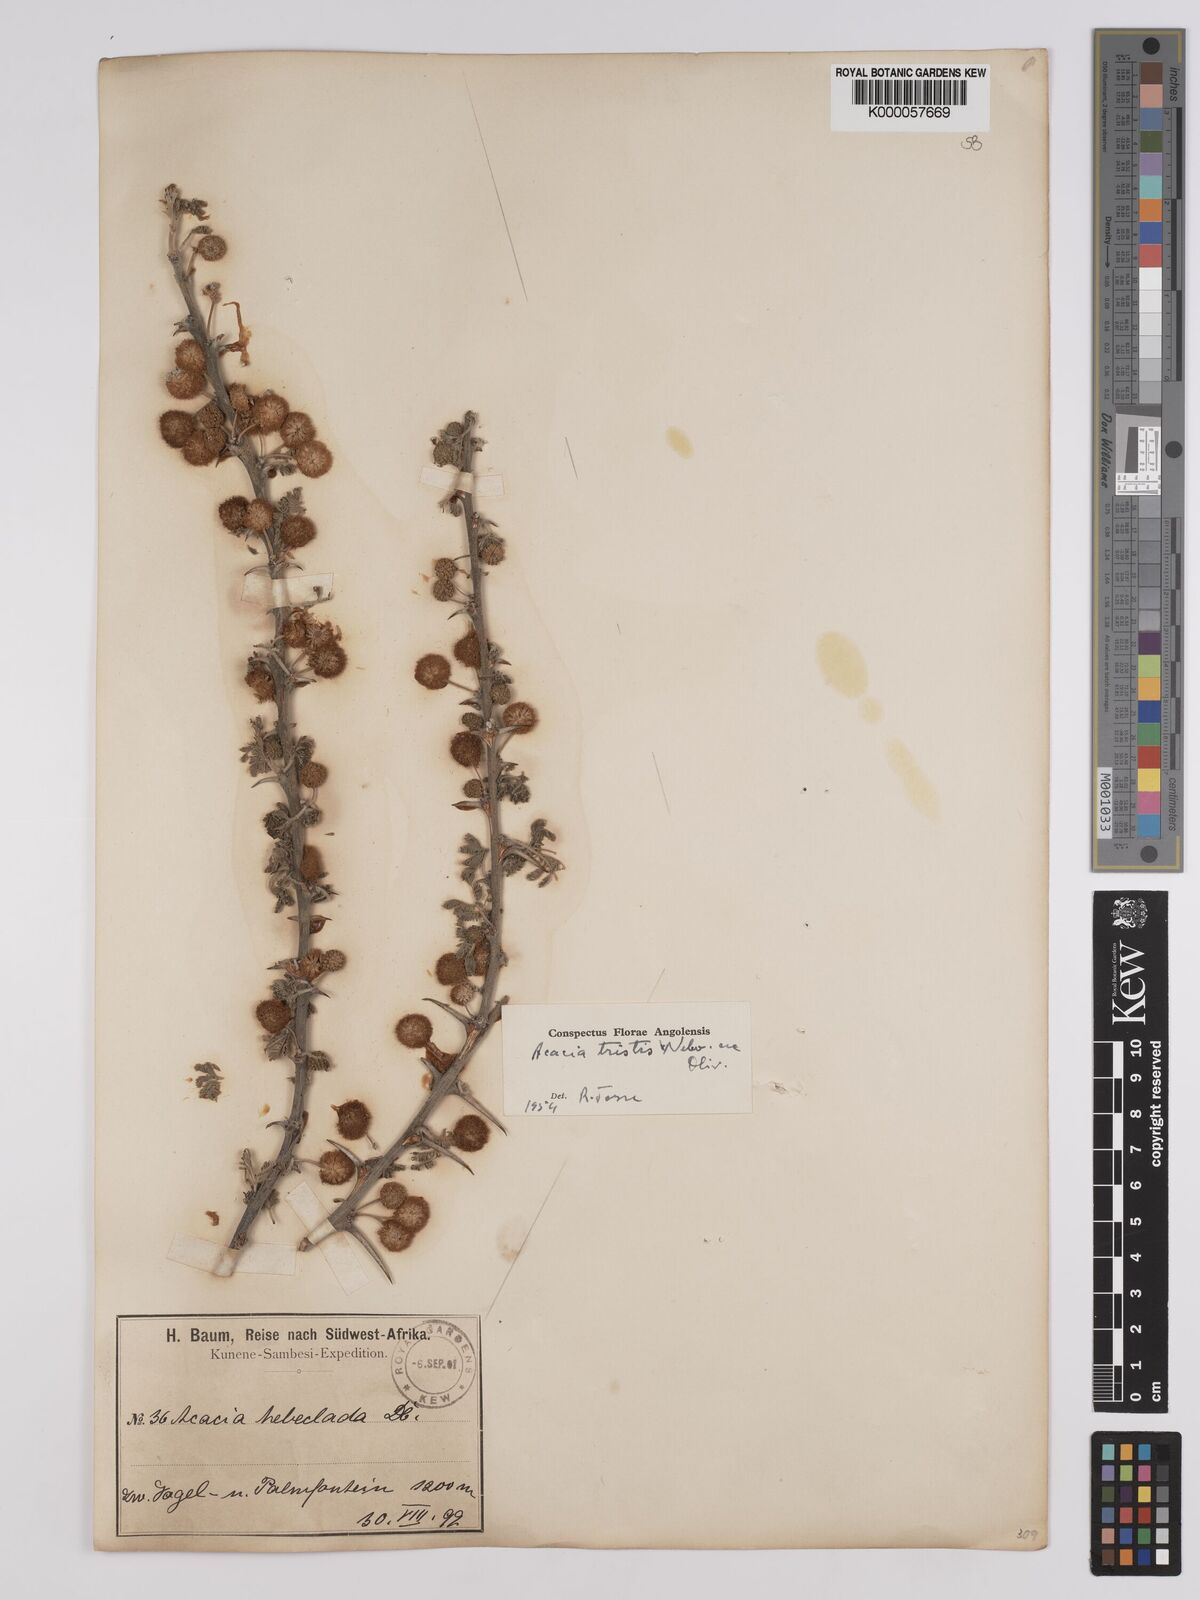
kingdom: Plantae
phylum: Tracheophyta
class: Magnoliopsida
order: Fabales
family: Fabaceae
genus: Vachellia
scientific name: Vachellia hebeclada
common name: Candle thorn
